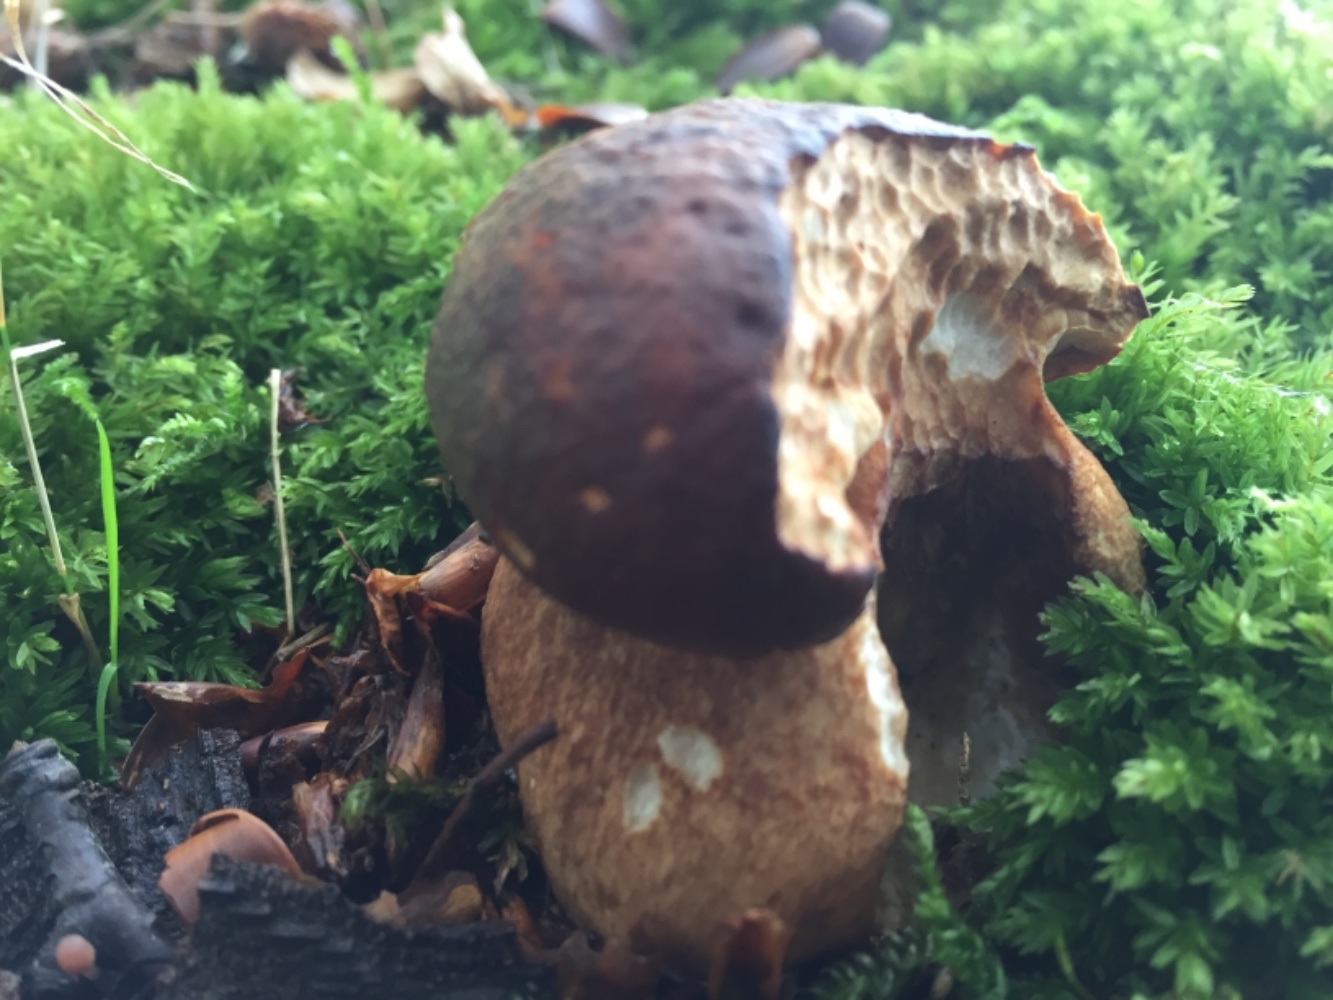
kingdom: Fungi
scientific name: Fungi
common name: bronze-rørhat
